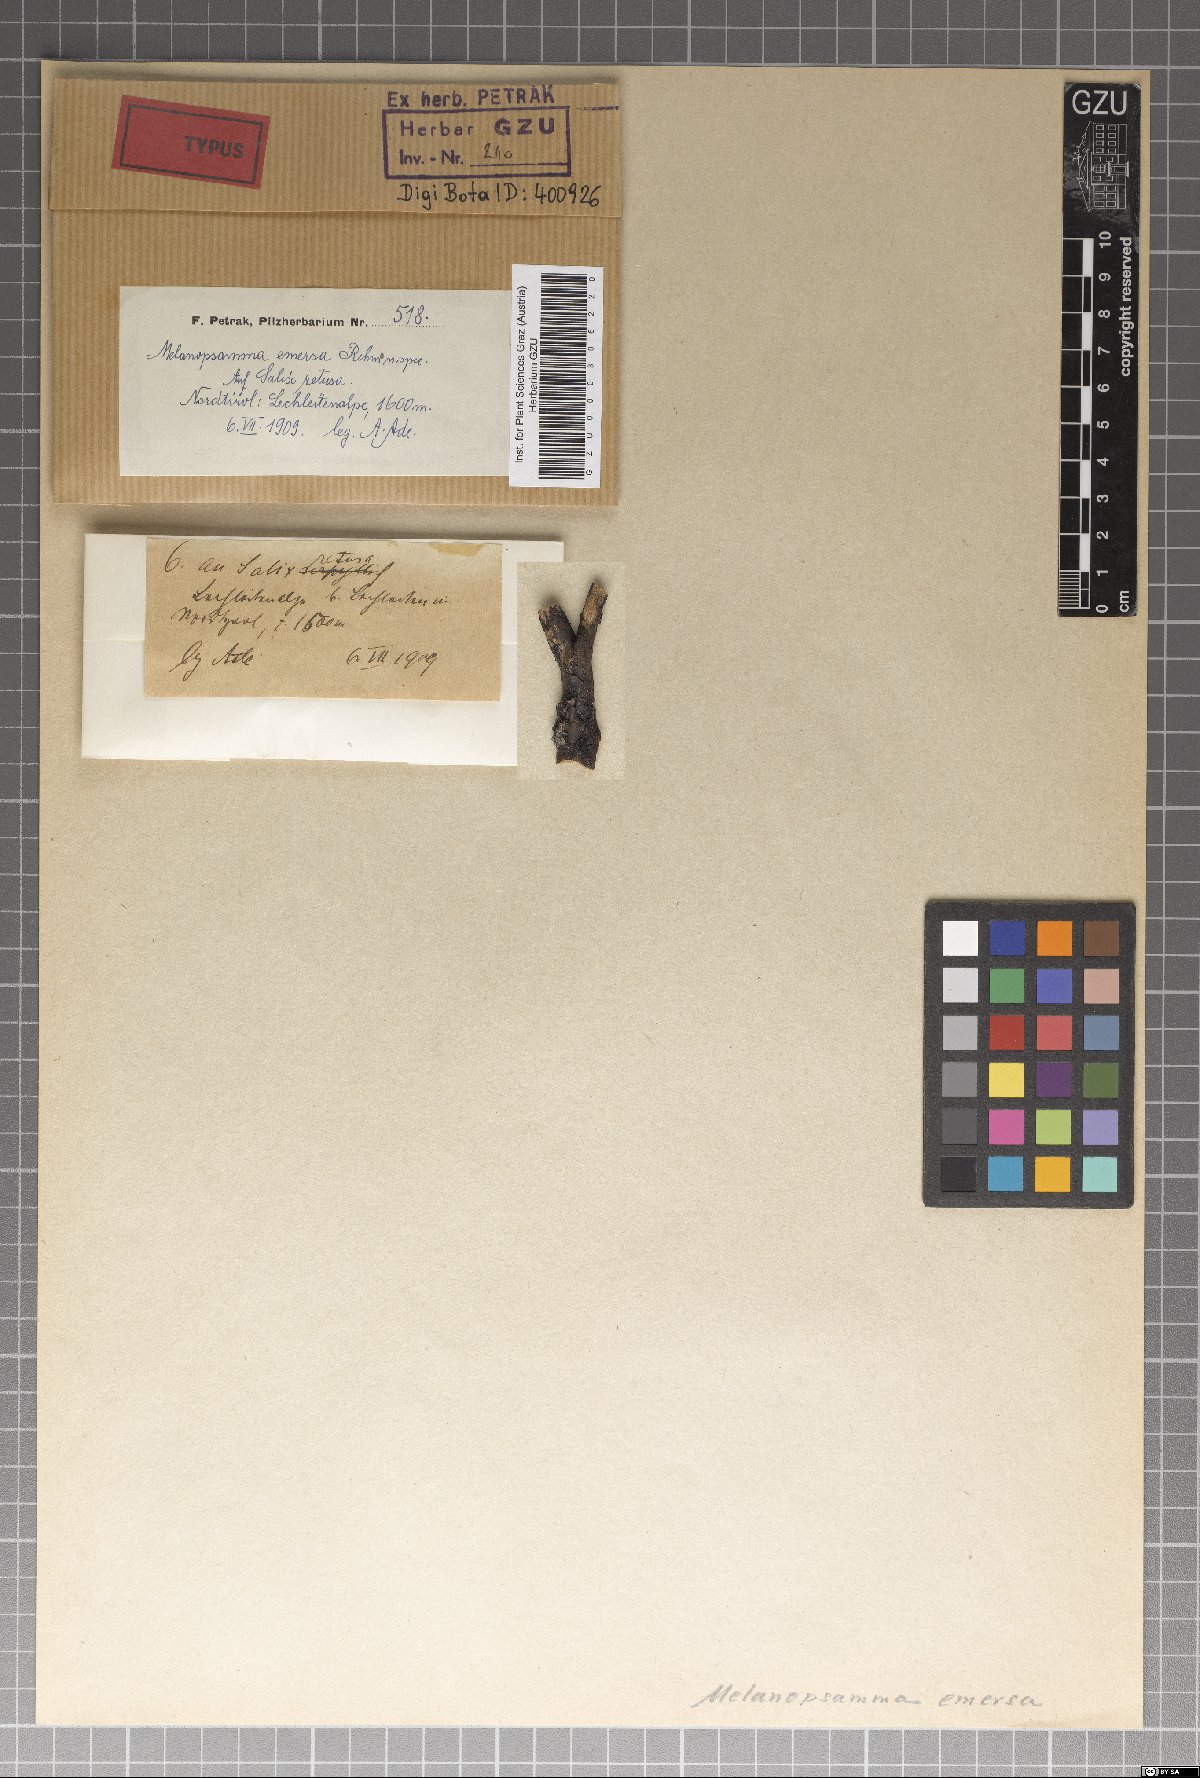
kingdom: Fungi
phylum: Ascomycota
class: Sordariomycetes
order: Hypocreales
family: Niessliaceae
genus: Melanopsamma
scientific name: Melanopsamma emersa
